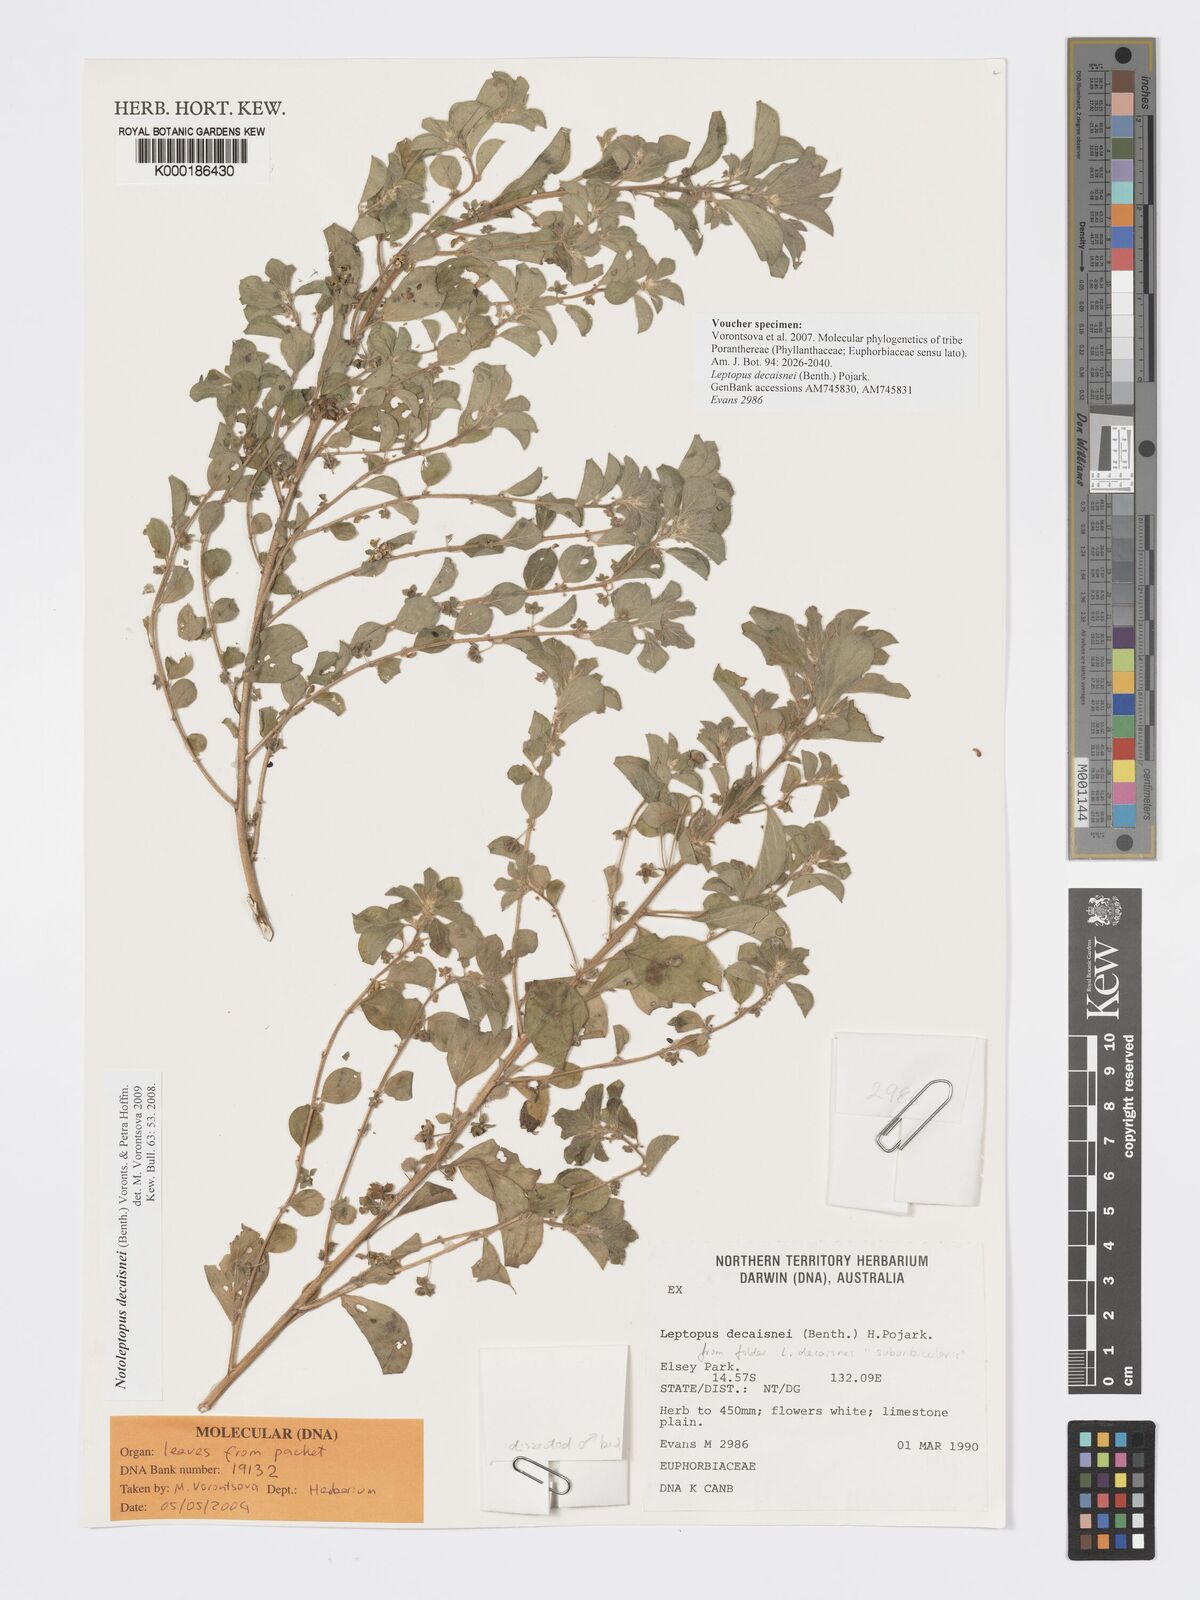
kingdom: Plantae
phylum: Tracheophyta
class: Magnoliopsida
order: Malpighiales
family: Phyllanthaceae
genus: Andrachne
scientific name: Andrachne
